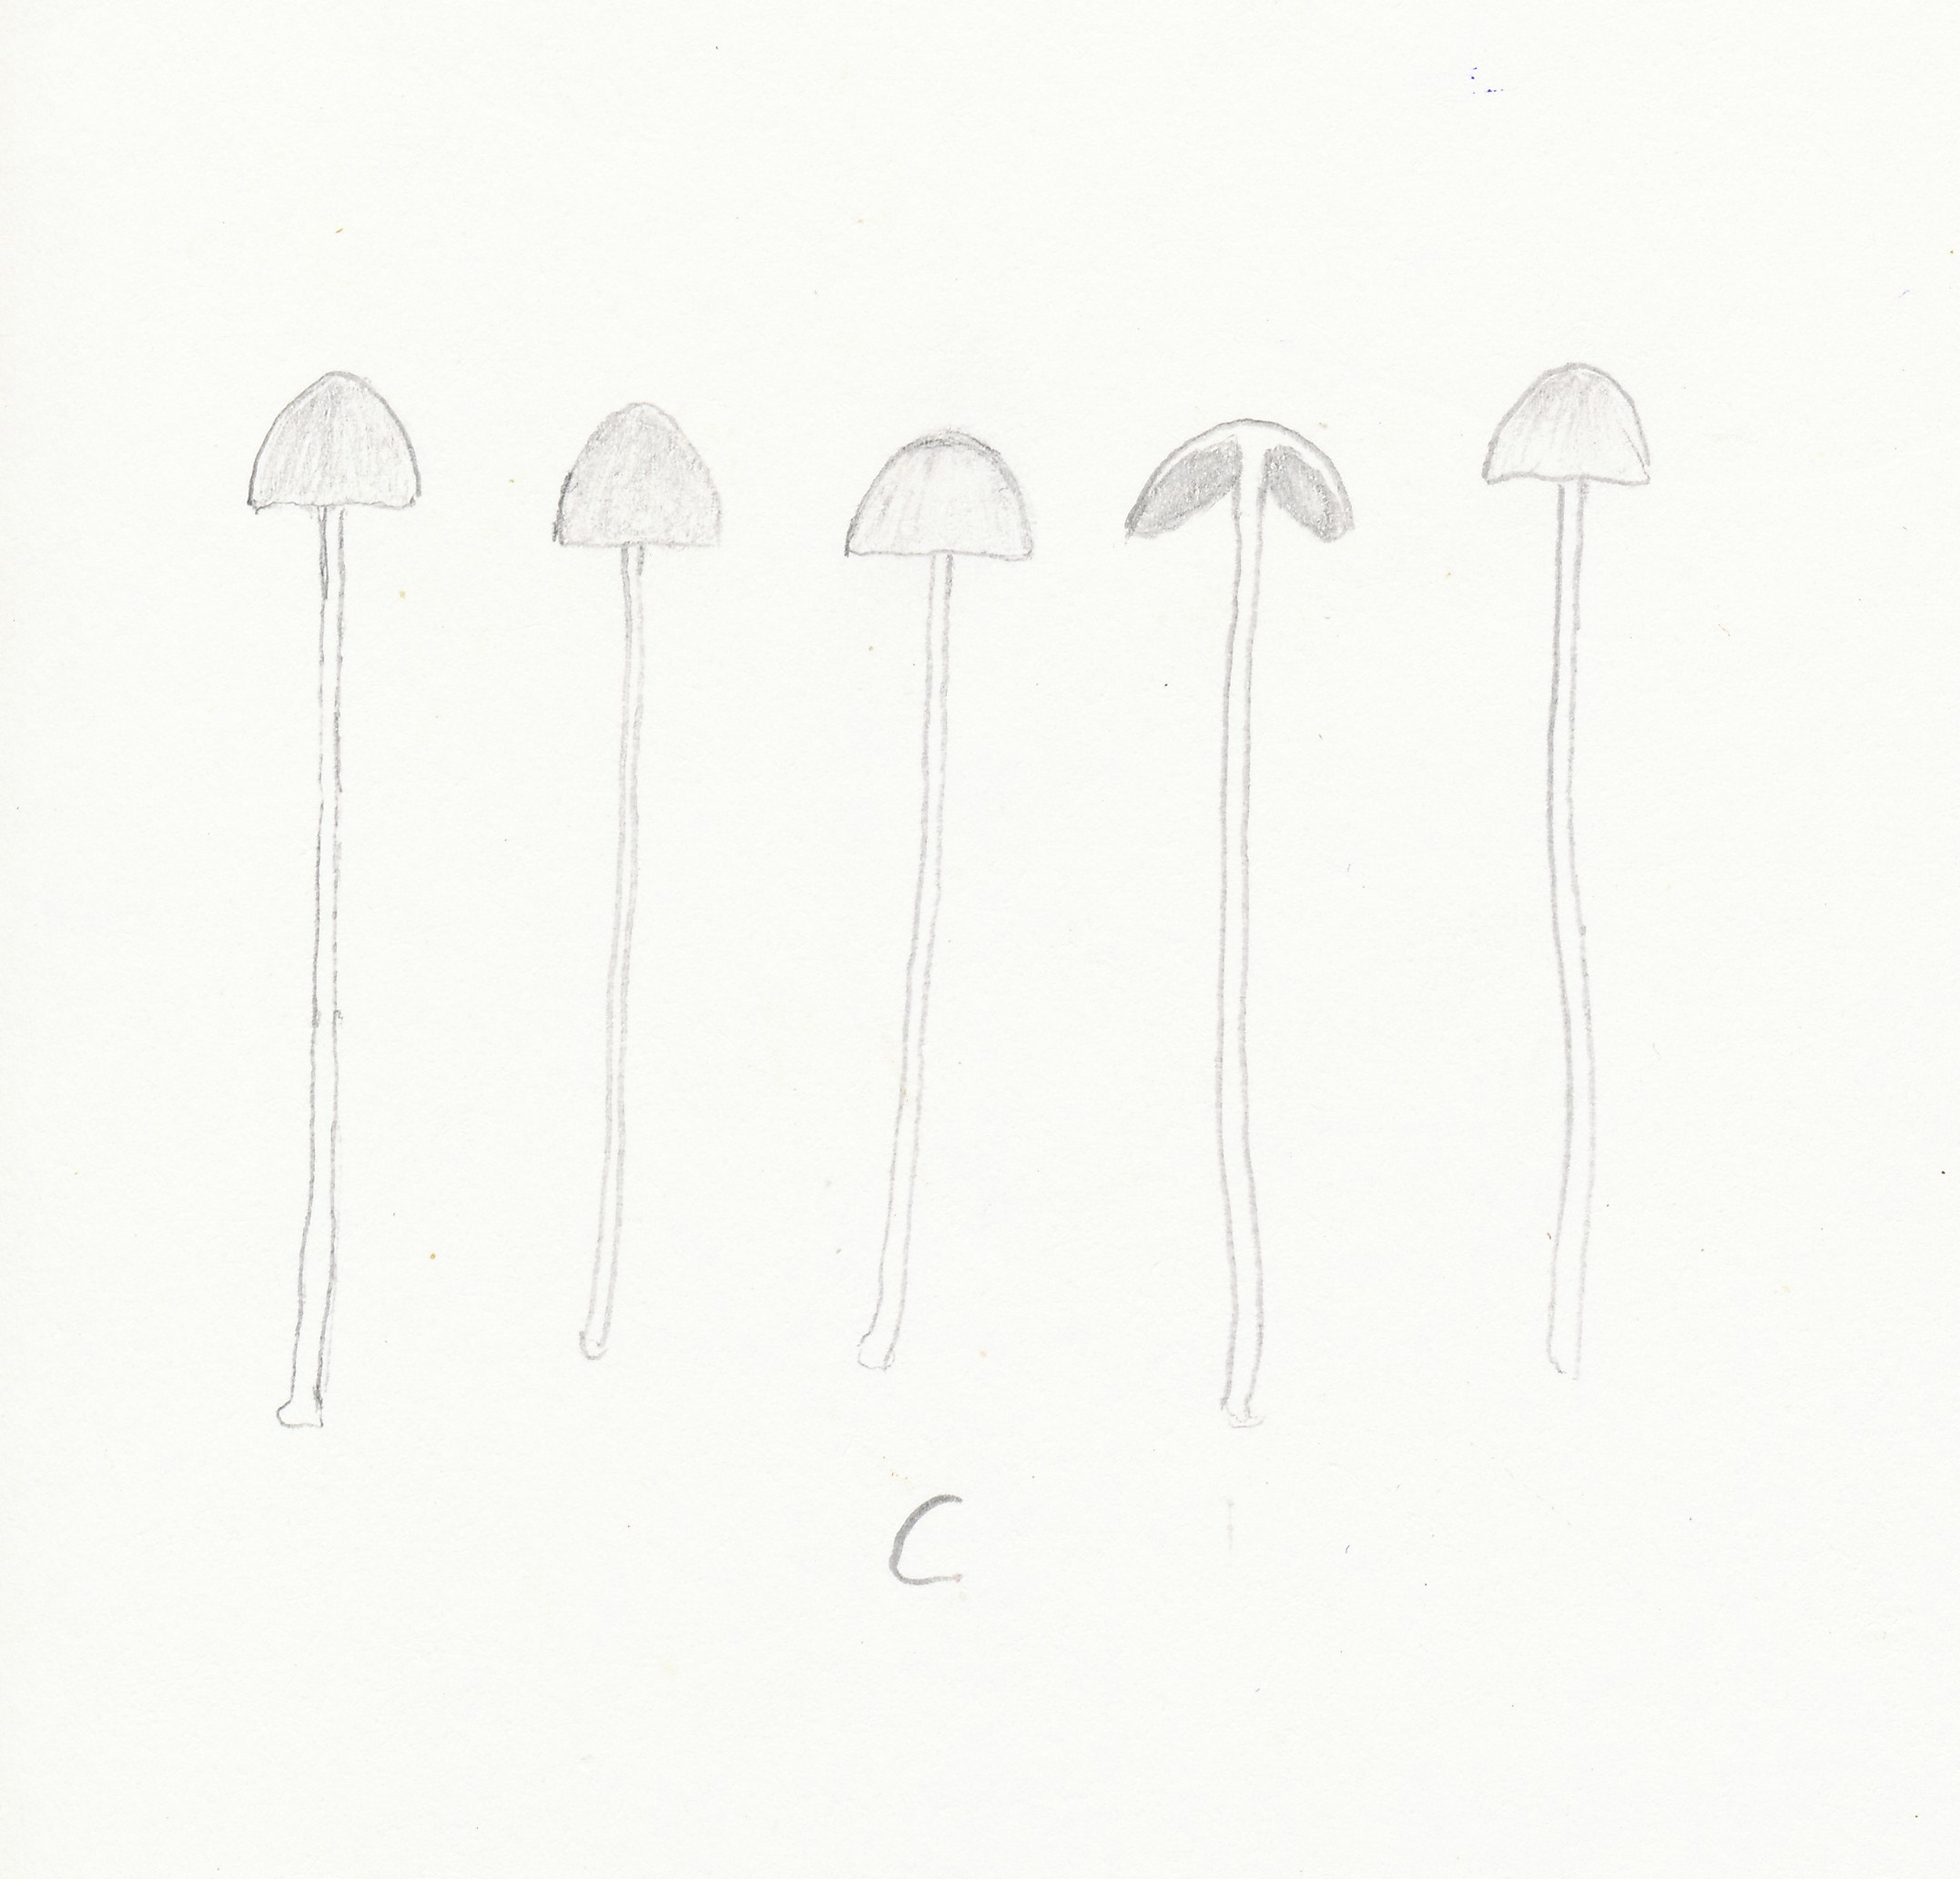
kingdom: Fungi
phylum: Basidiomycota
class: Agaricomycetes
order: Agaricales
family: Bolbitiaceae
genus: Conocybe
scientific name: Conocybe siliginea
